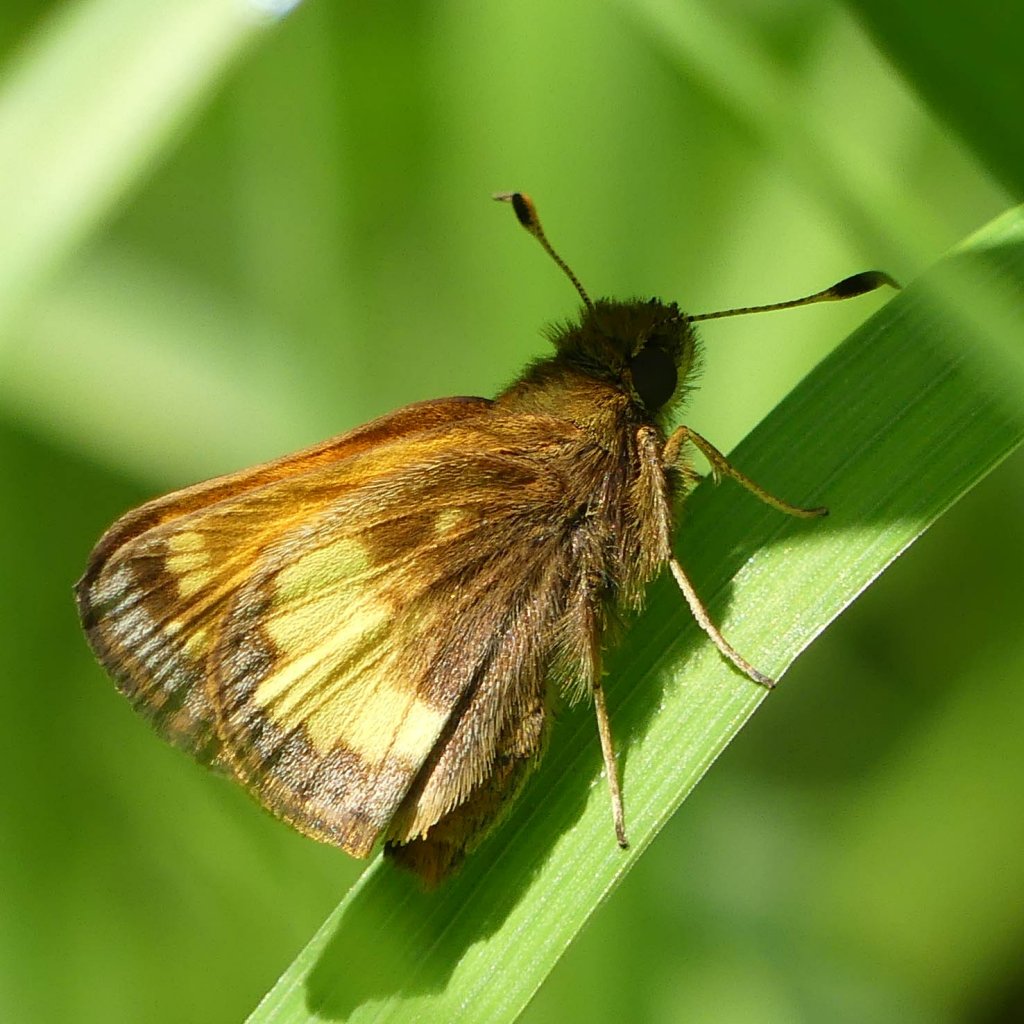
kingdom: Animalia
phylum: Arthropoda
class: Insecta
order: Lepidoptera
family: Hesperiidae
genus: Lon
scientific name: Lon hobomok
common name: Hobomok Skipper
